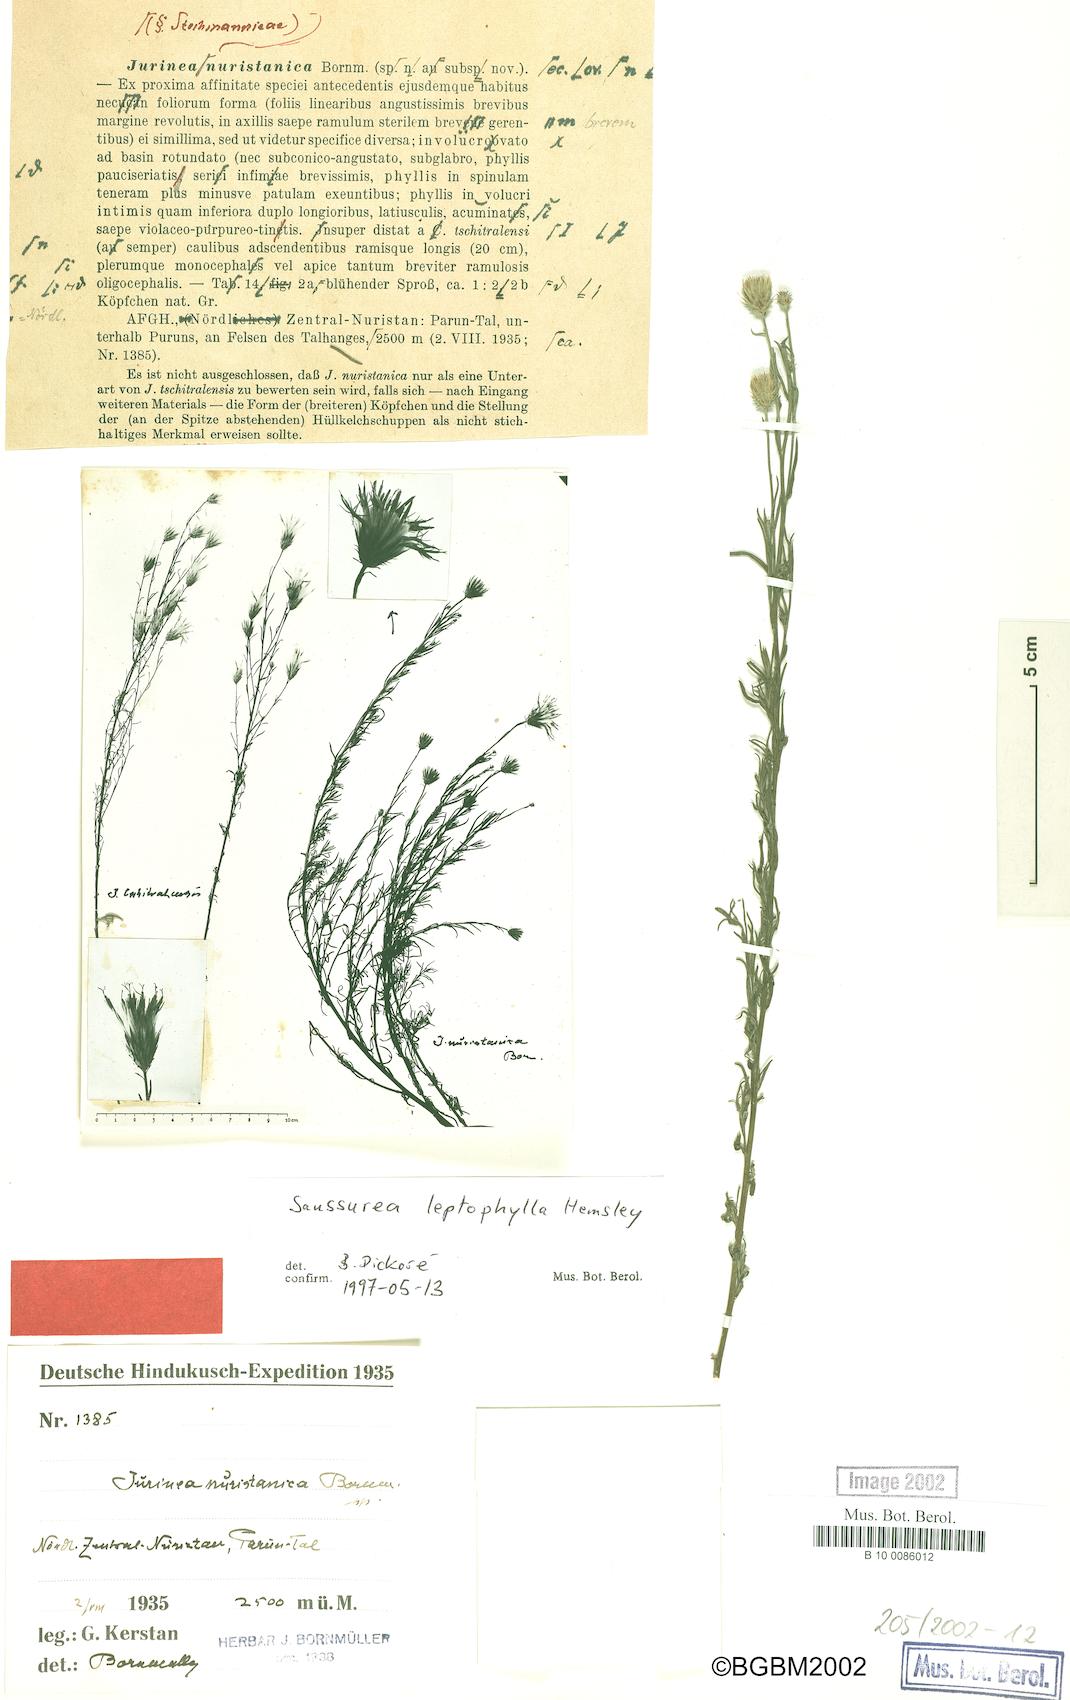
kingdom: Plantae
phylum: Tracheophyta
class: Magnoliopsida
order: Asterales
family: Asteraceae
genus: Jurinea
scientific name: Jurinea leptophylla
